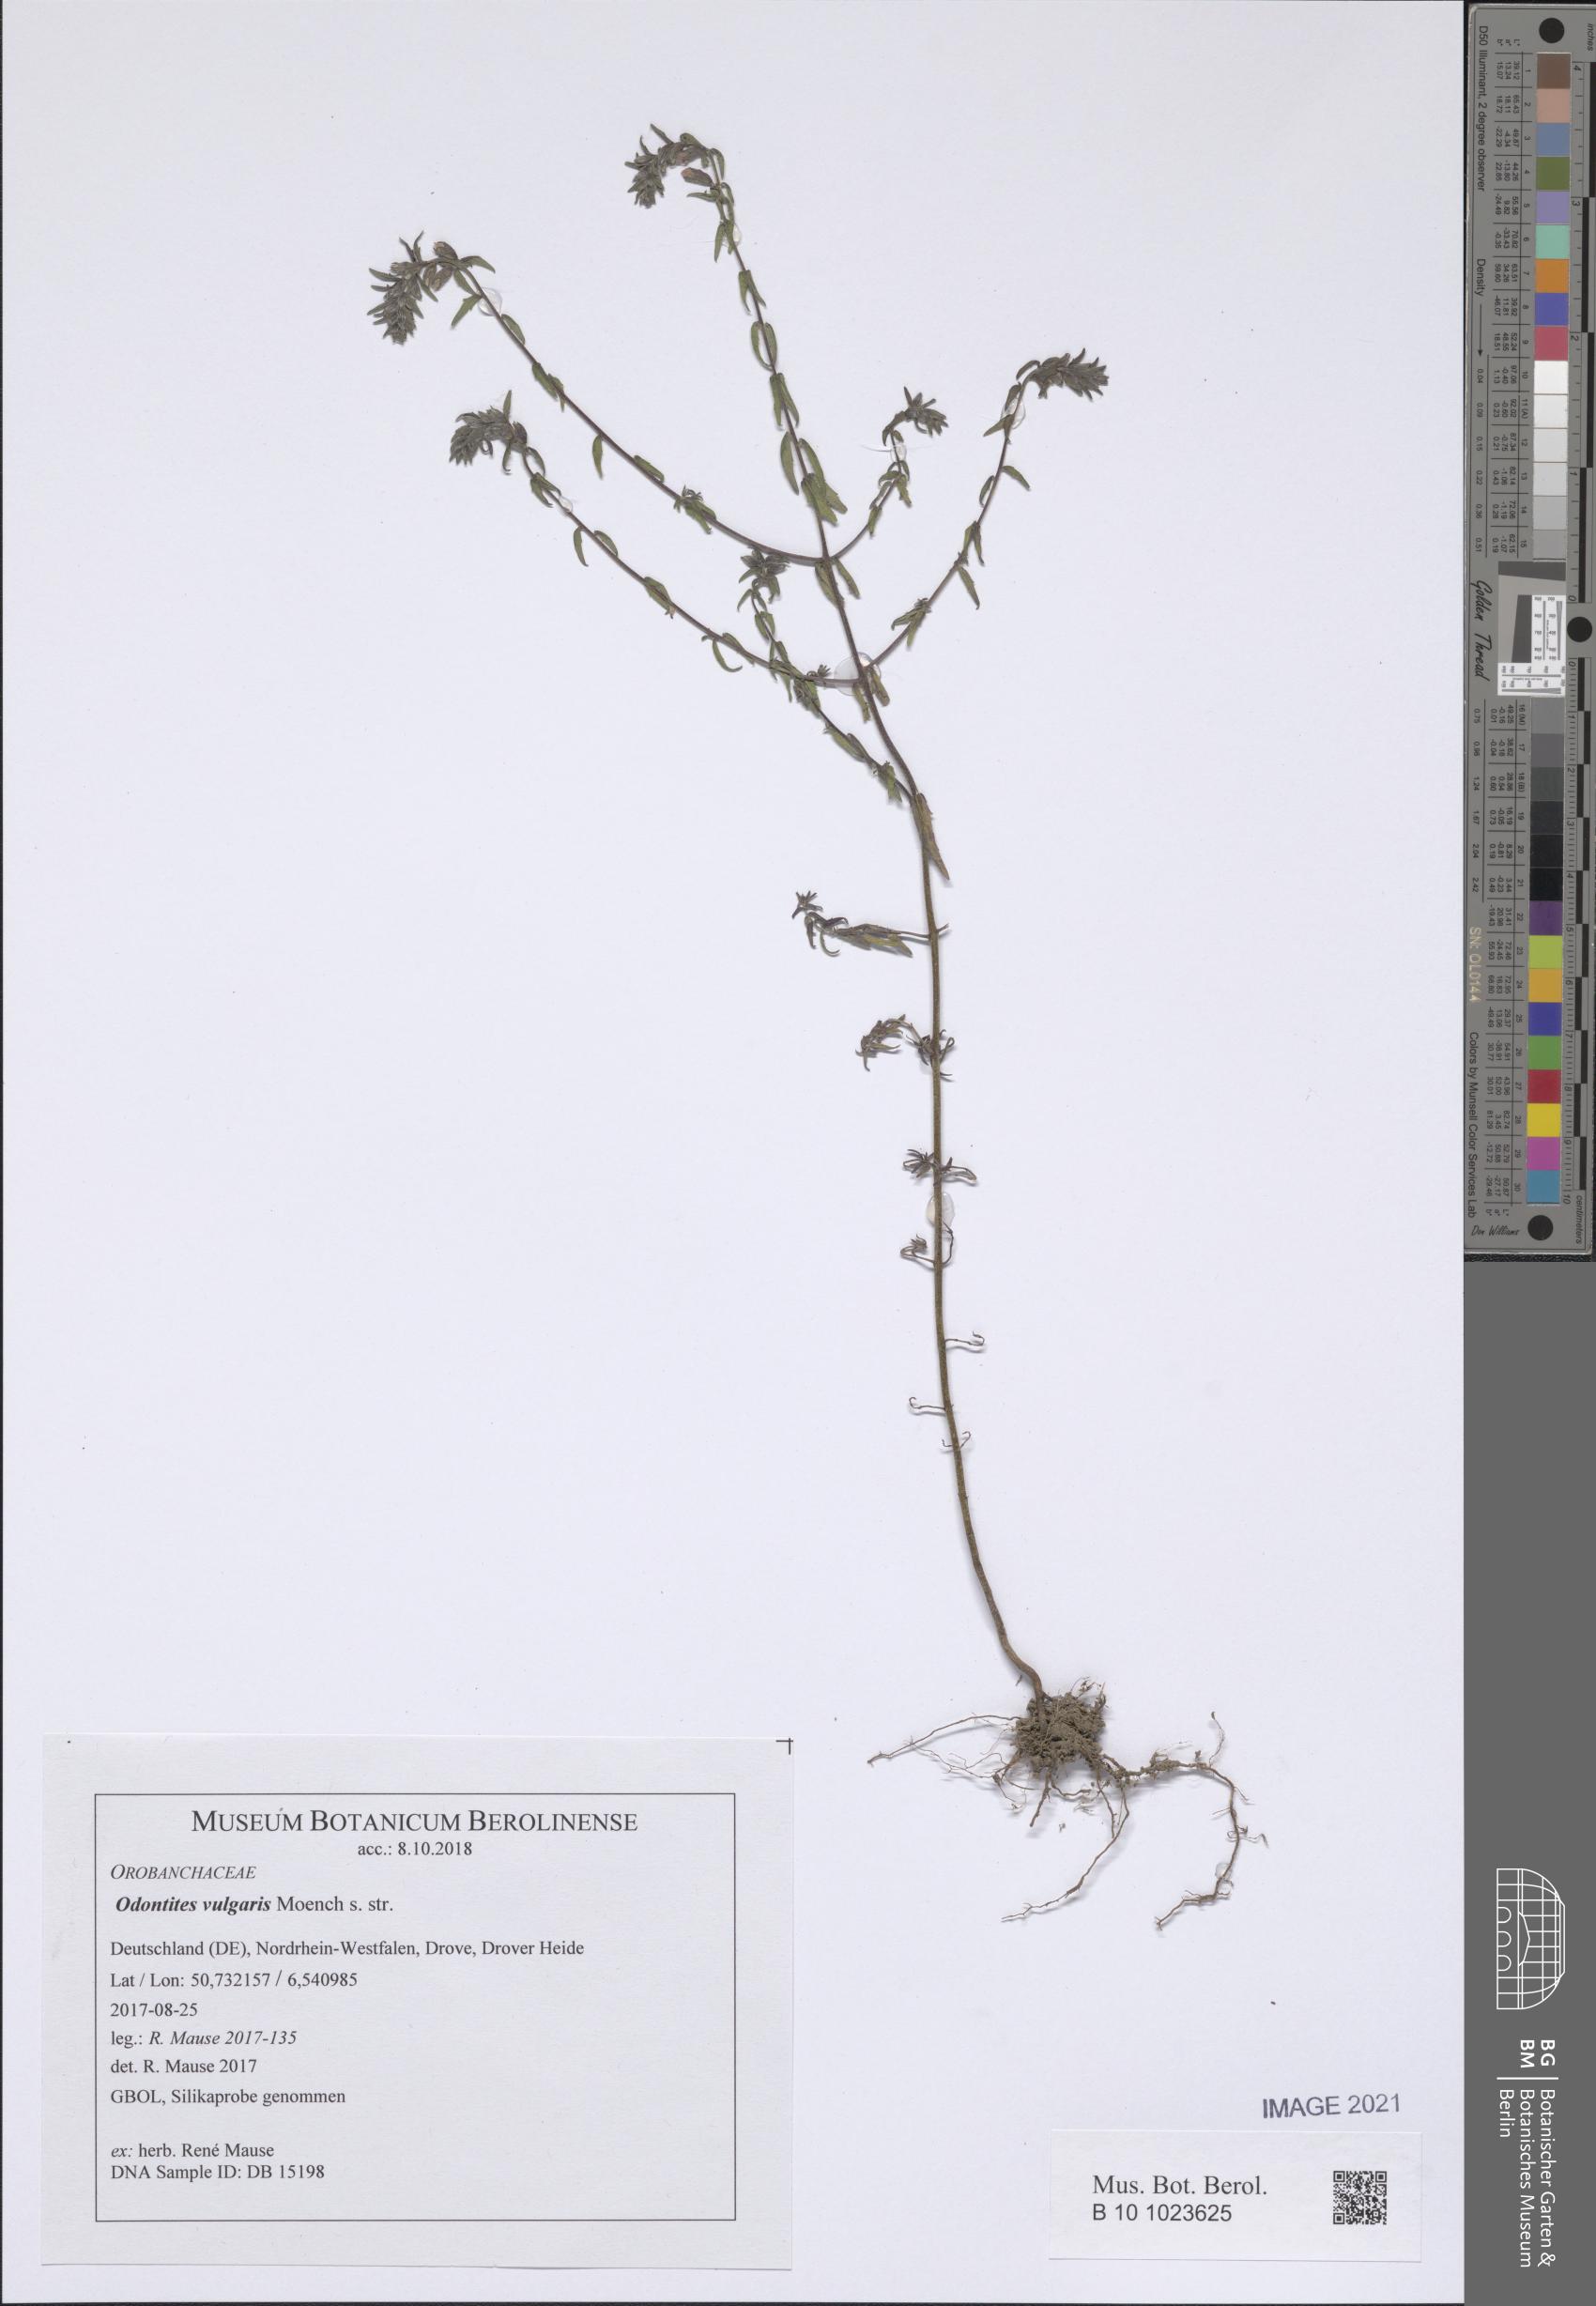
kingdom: Plantae
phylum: Tracheophyta
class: Magnoliopsida
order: Lamiales
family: Orobanchaceae
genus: Odontites
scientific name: Odontites vulgaris
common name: Broomrape
